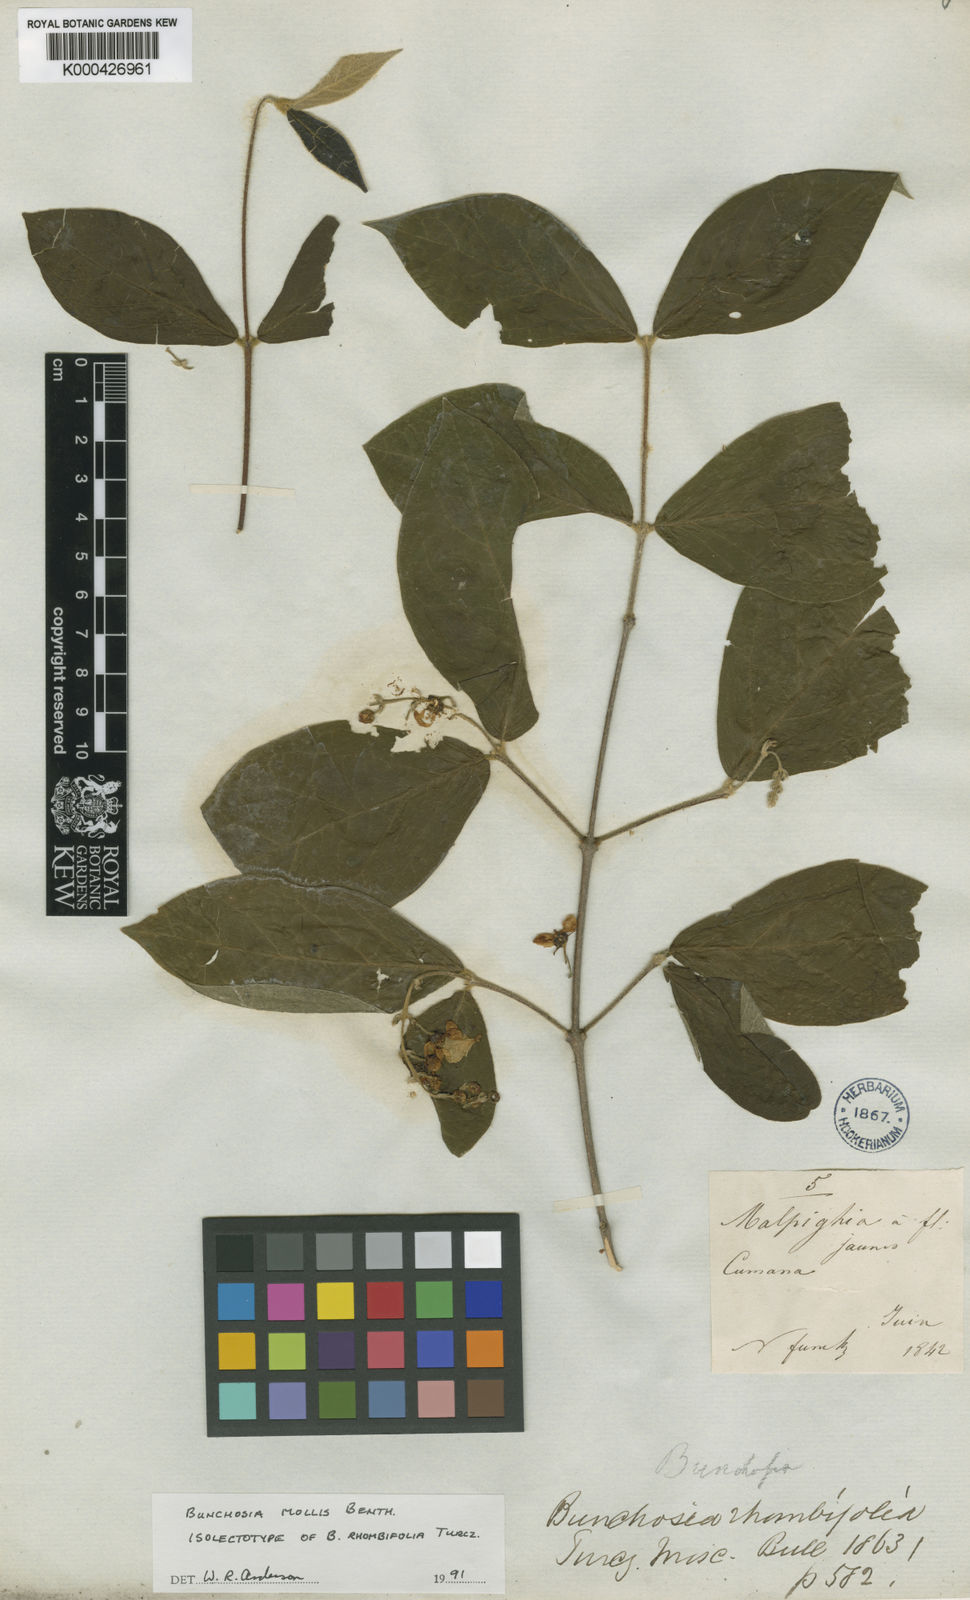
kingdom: Plantae
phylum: Tracheophyta
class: Magnoliopsida
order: Malpighiales
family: Malpighiaceae
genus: Bunchosia
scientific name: Bunchosia mollis
